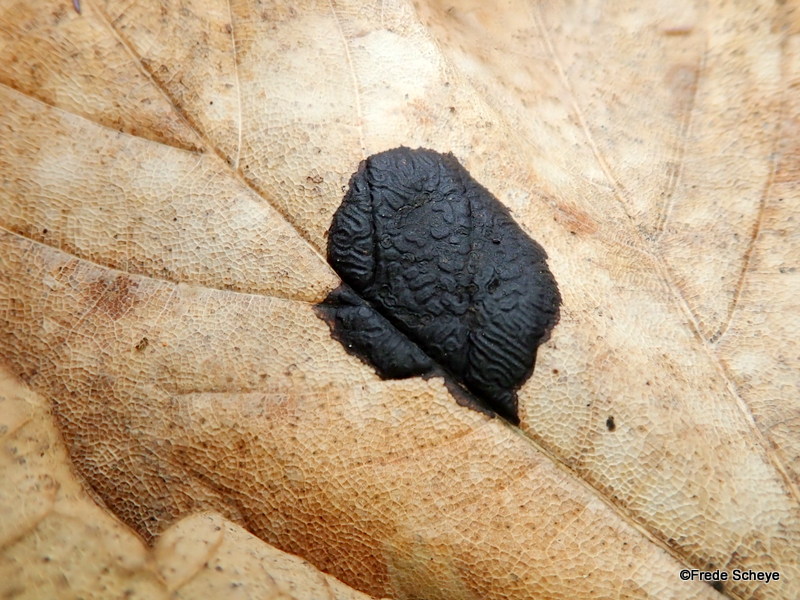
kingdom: Fungi
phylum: Ascomycota
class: Leotiomycetes
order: Rhytismatales
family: Rhytismataceae
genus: Rhytisma
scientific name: Rhytisma acerinum
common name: ahorn-rynkeplet
